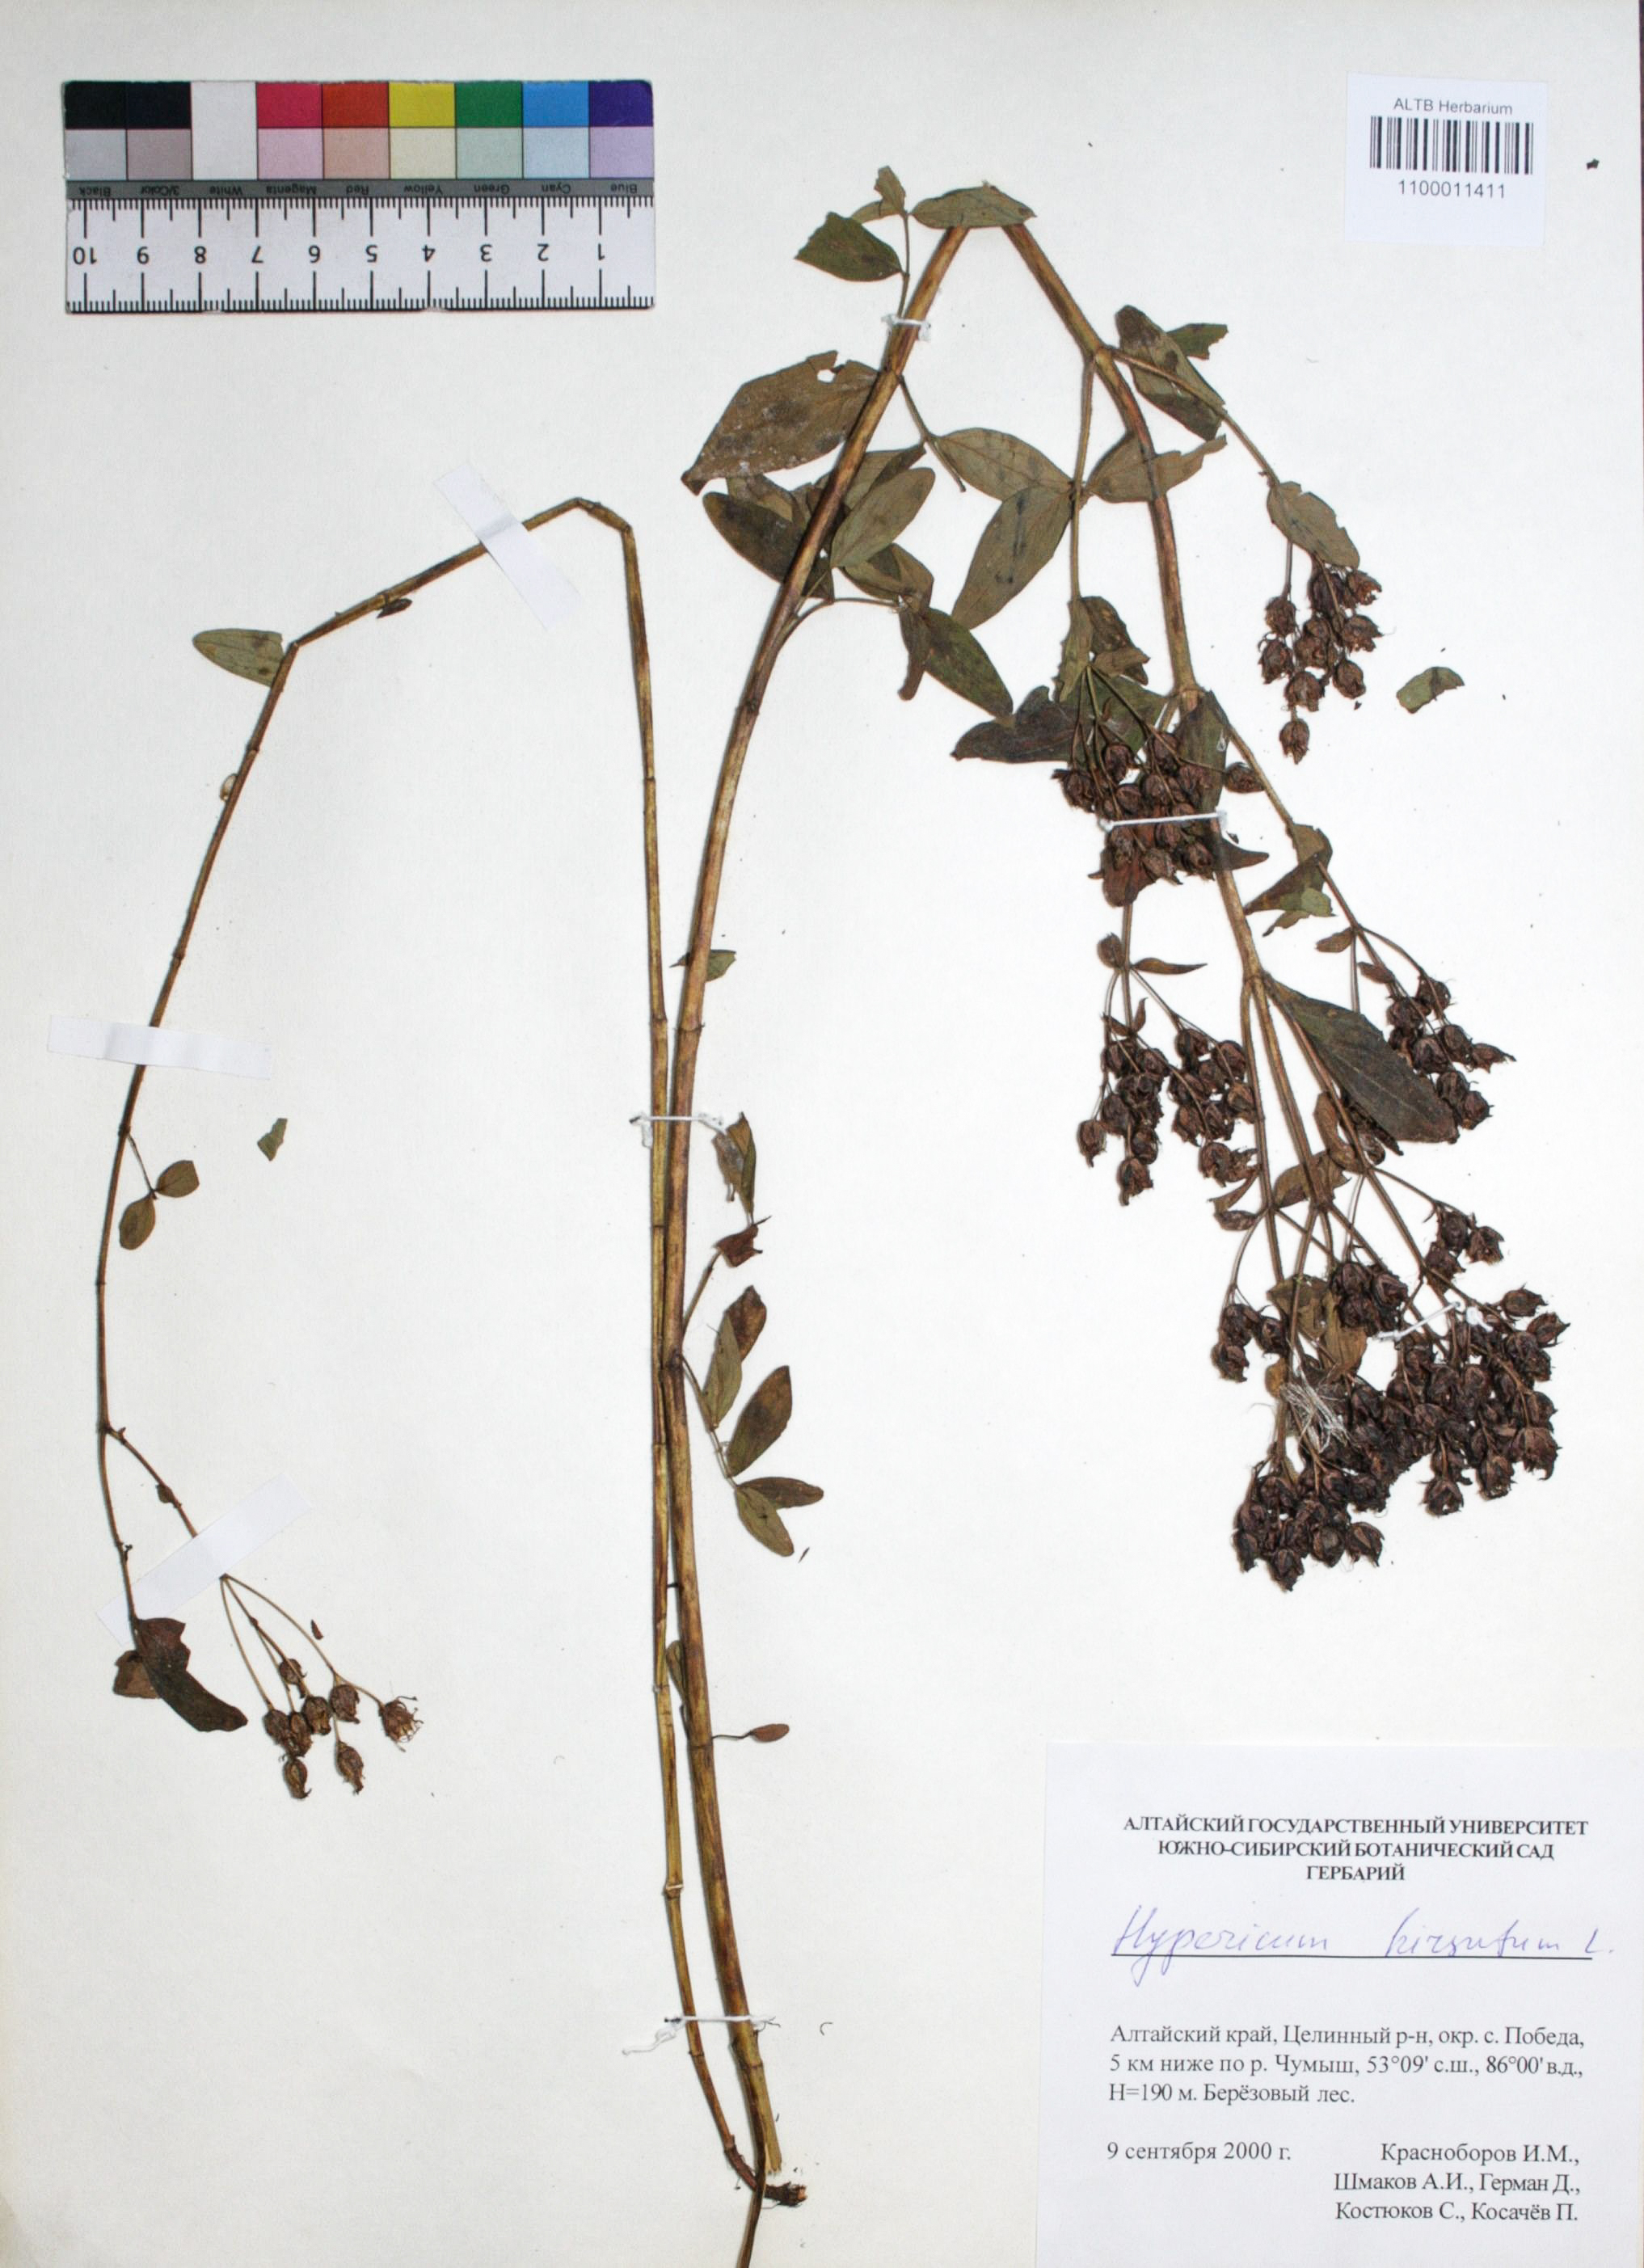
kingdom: Plantae
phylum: Tracheophyta
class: Magnoliopsida
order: Malpighiales
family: Hypericaceae
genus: Hypericum
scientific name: Hypericum hirsutum
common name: Hairy st. john's-wort
